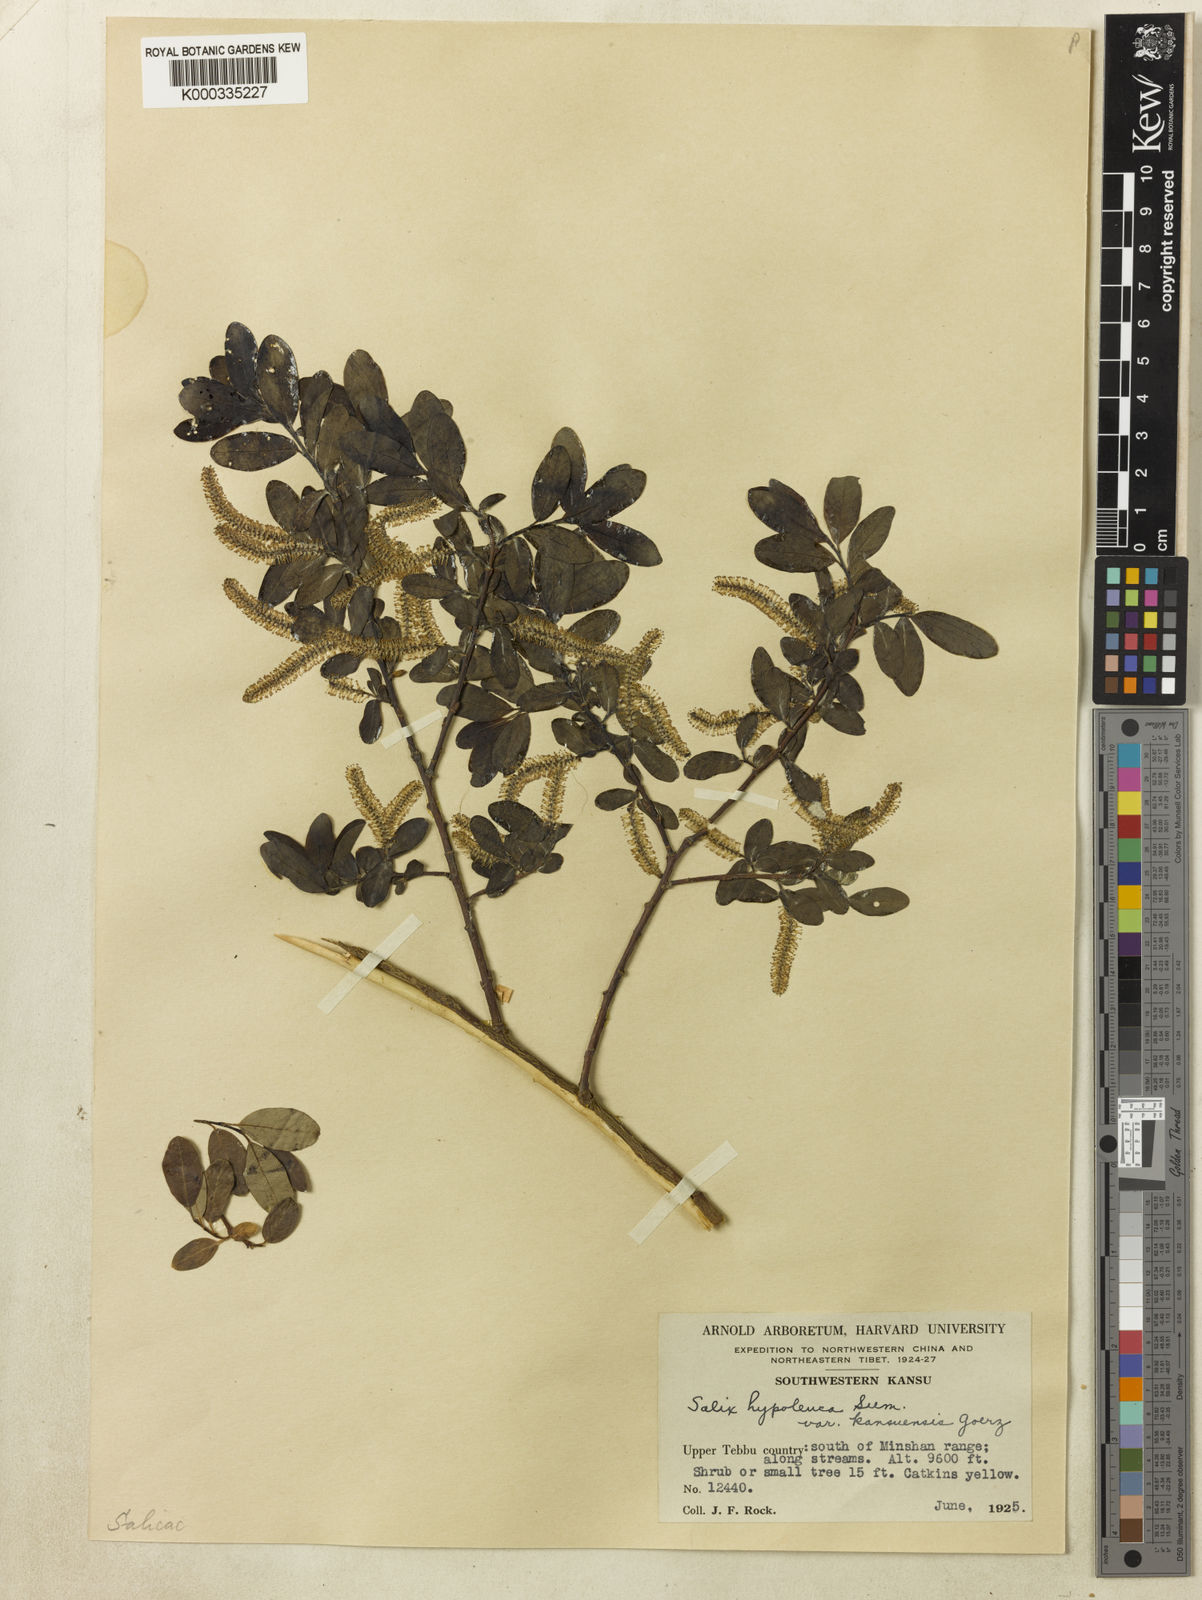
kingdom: Plantae
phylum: Tracheophyta
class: Magnoliopsida
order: Malpighiales
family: Salicaceae
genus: Salix
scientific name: Salix
